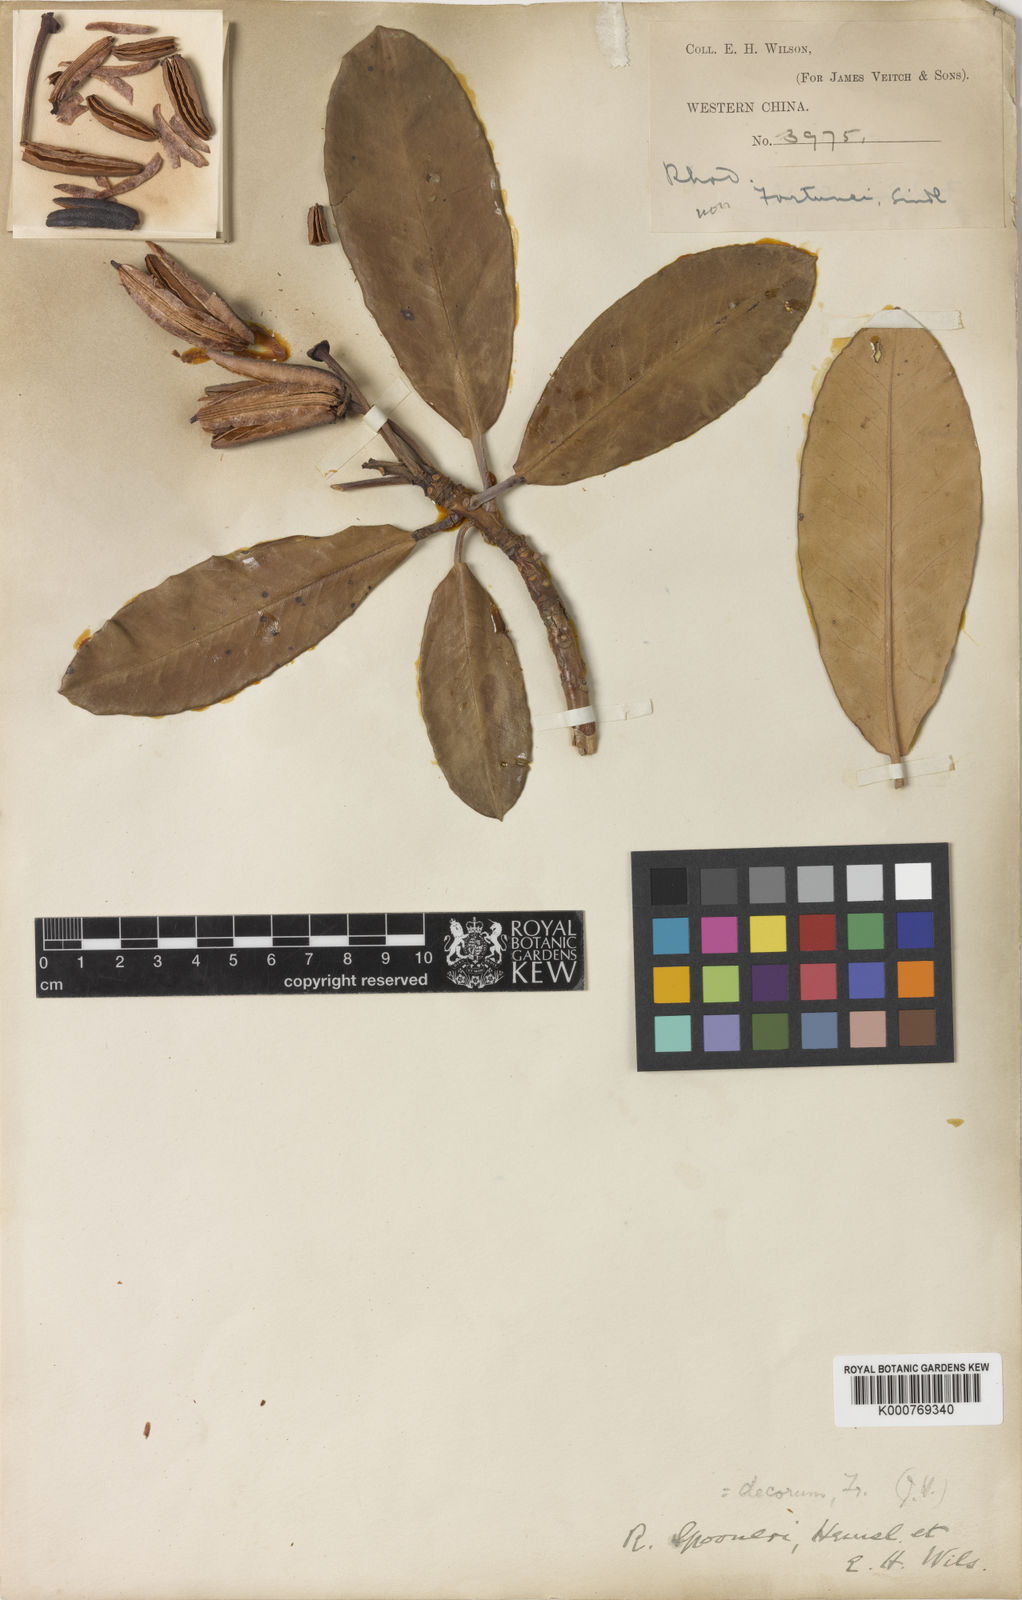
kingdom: Plantae
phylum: Tracheophyta
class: Magnoliopsida
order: Ericales
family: Ericaceae
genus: Rhododendron
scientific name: Rhododendron decorum
